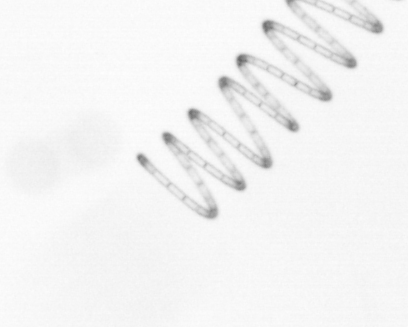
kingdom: Chromista
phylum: Ochrophyta
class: Bacillariophyceae
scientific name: Bacillariophyceae
